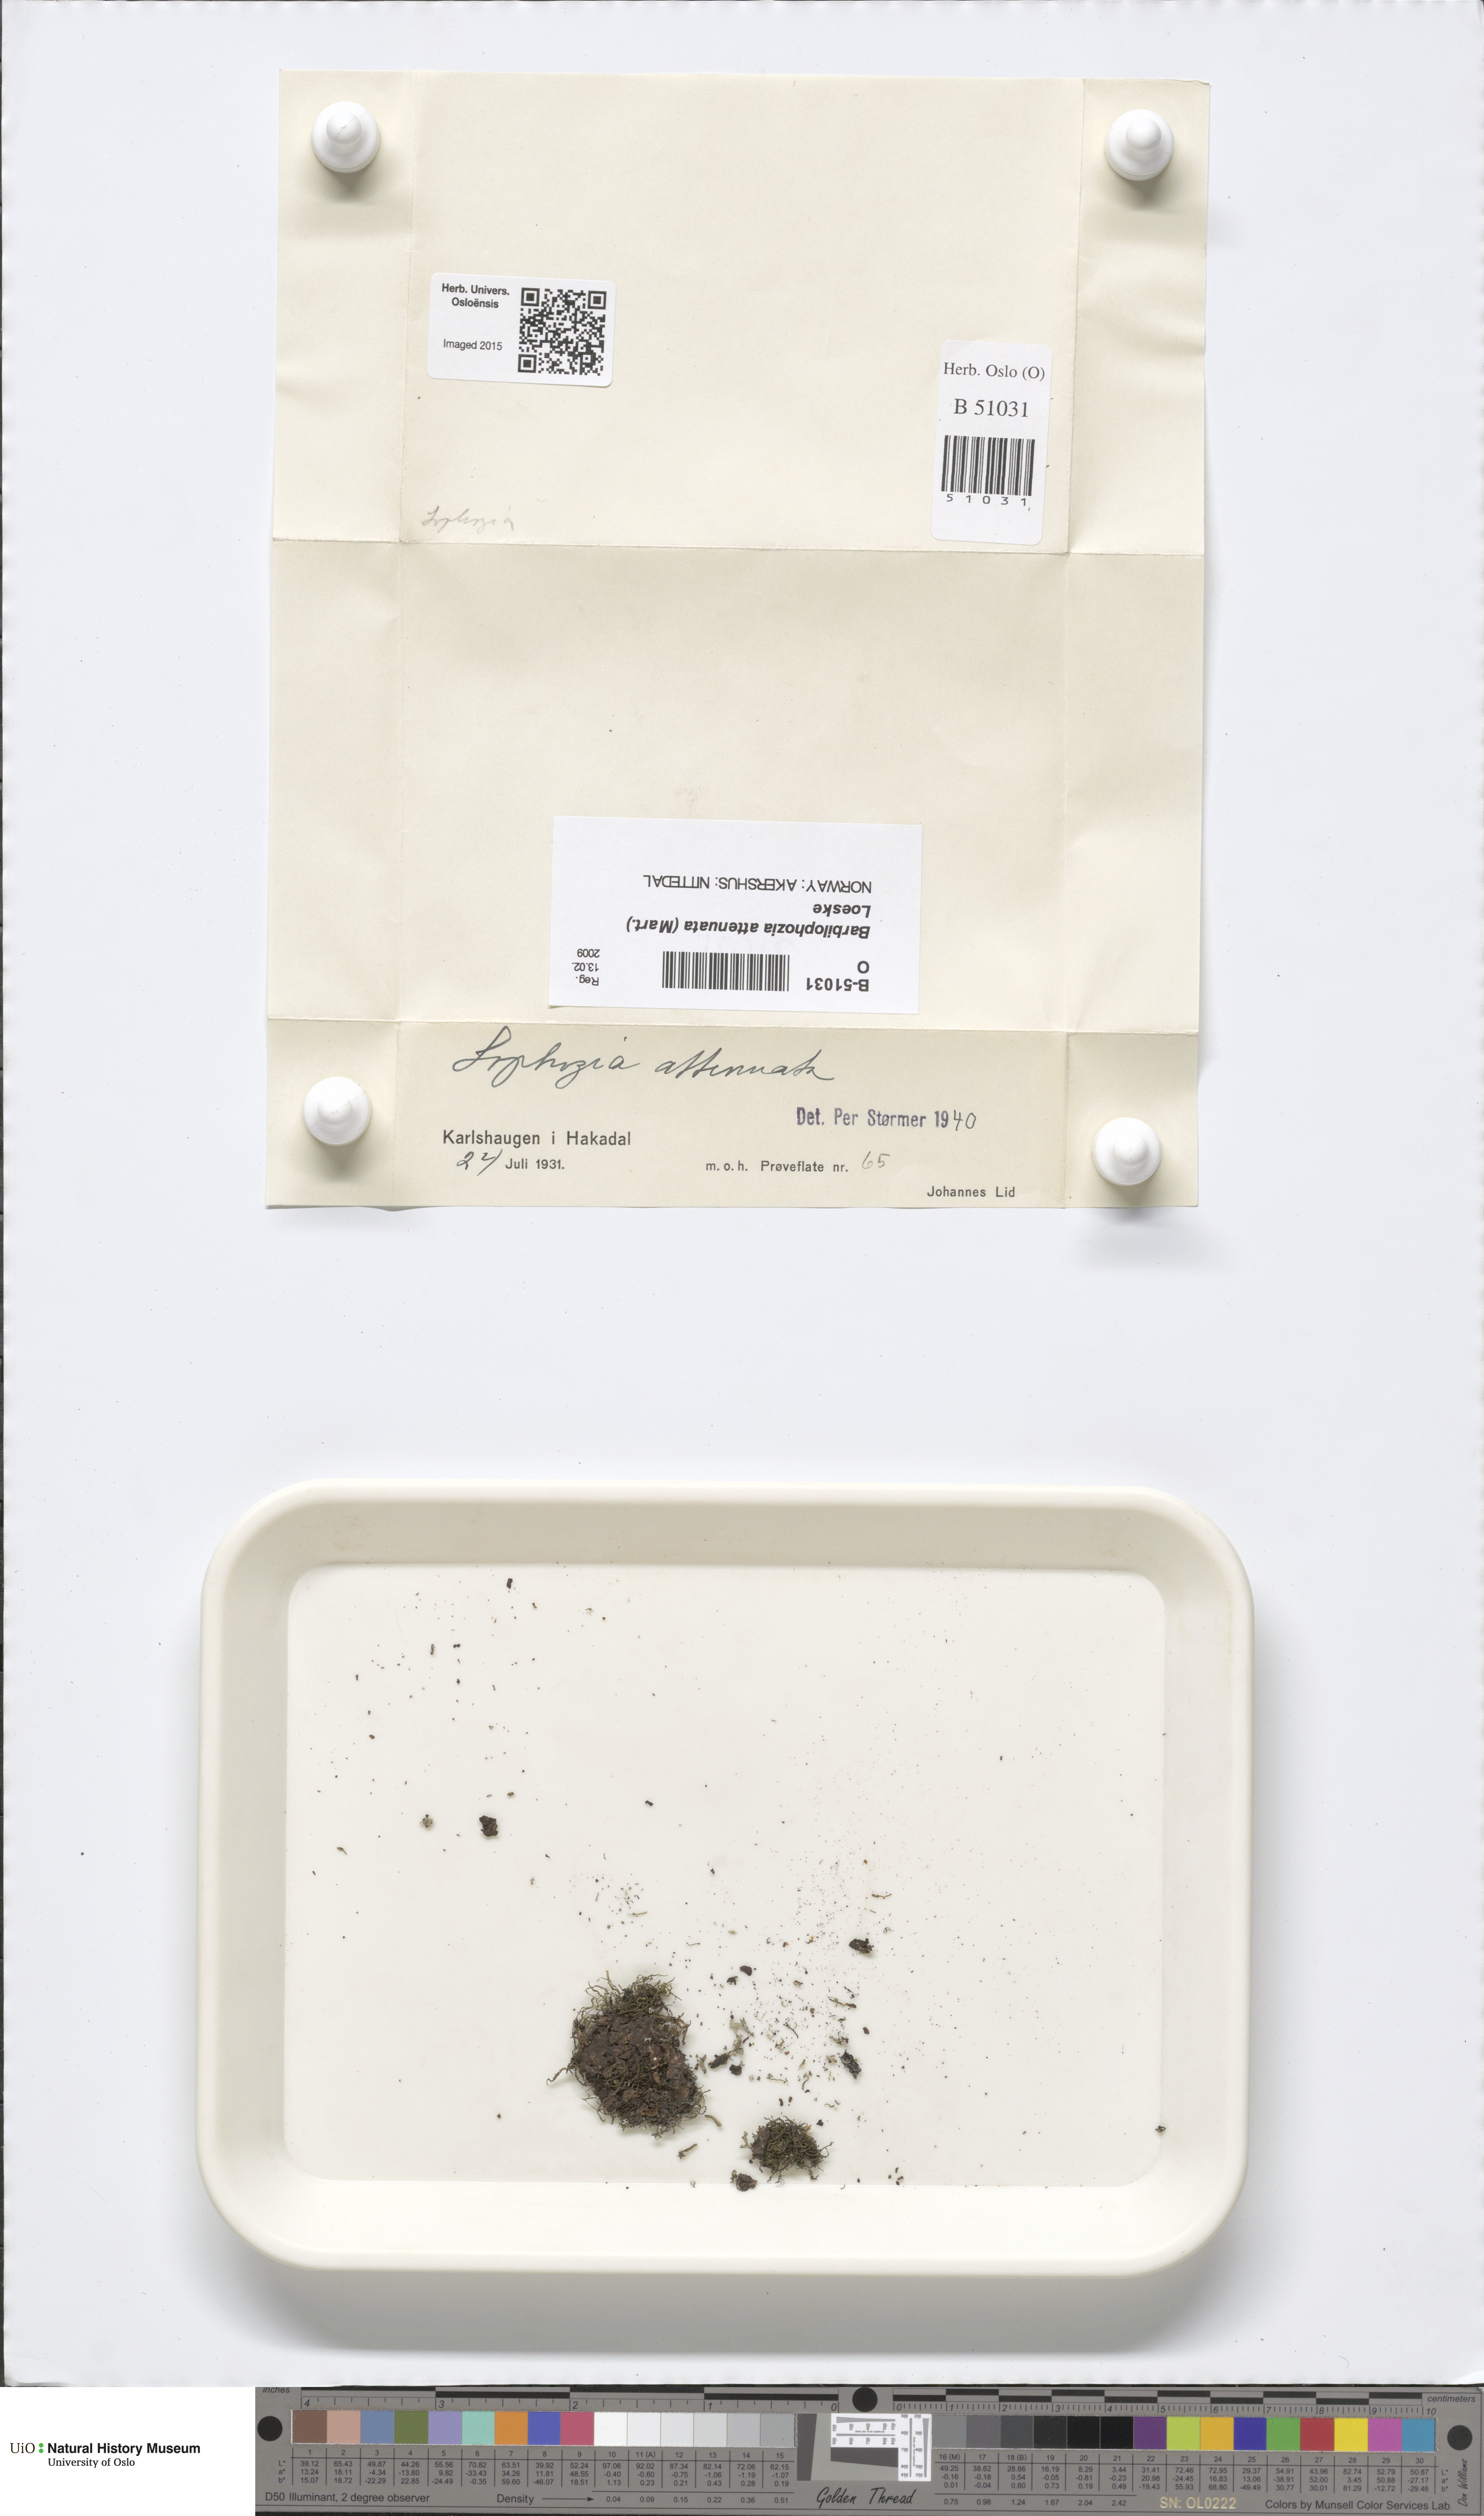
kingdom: Plantae
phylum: Marchantiophyta
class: Jungermanniopsida
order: Jungermanniales
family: Anastrophyllaceae
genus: Neoorthocaulis
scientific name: Neoorthocaulis attenuatus
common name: Trunk pawwort
